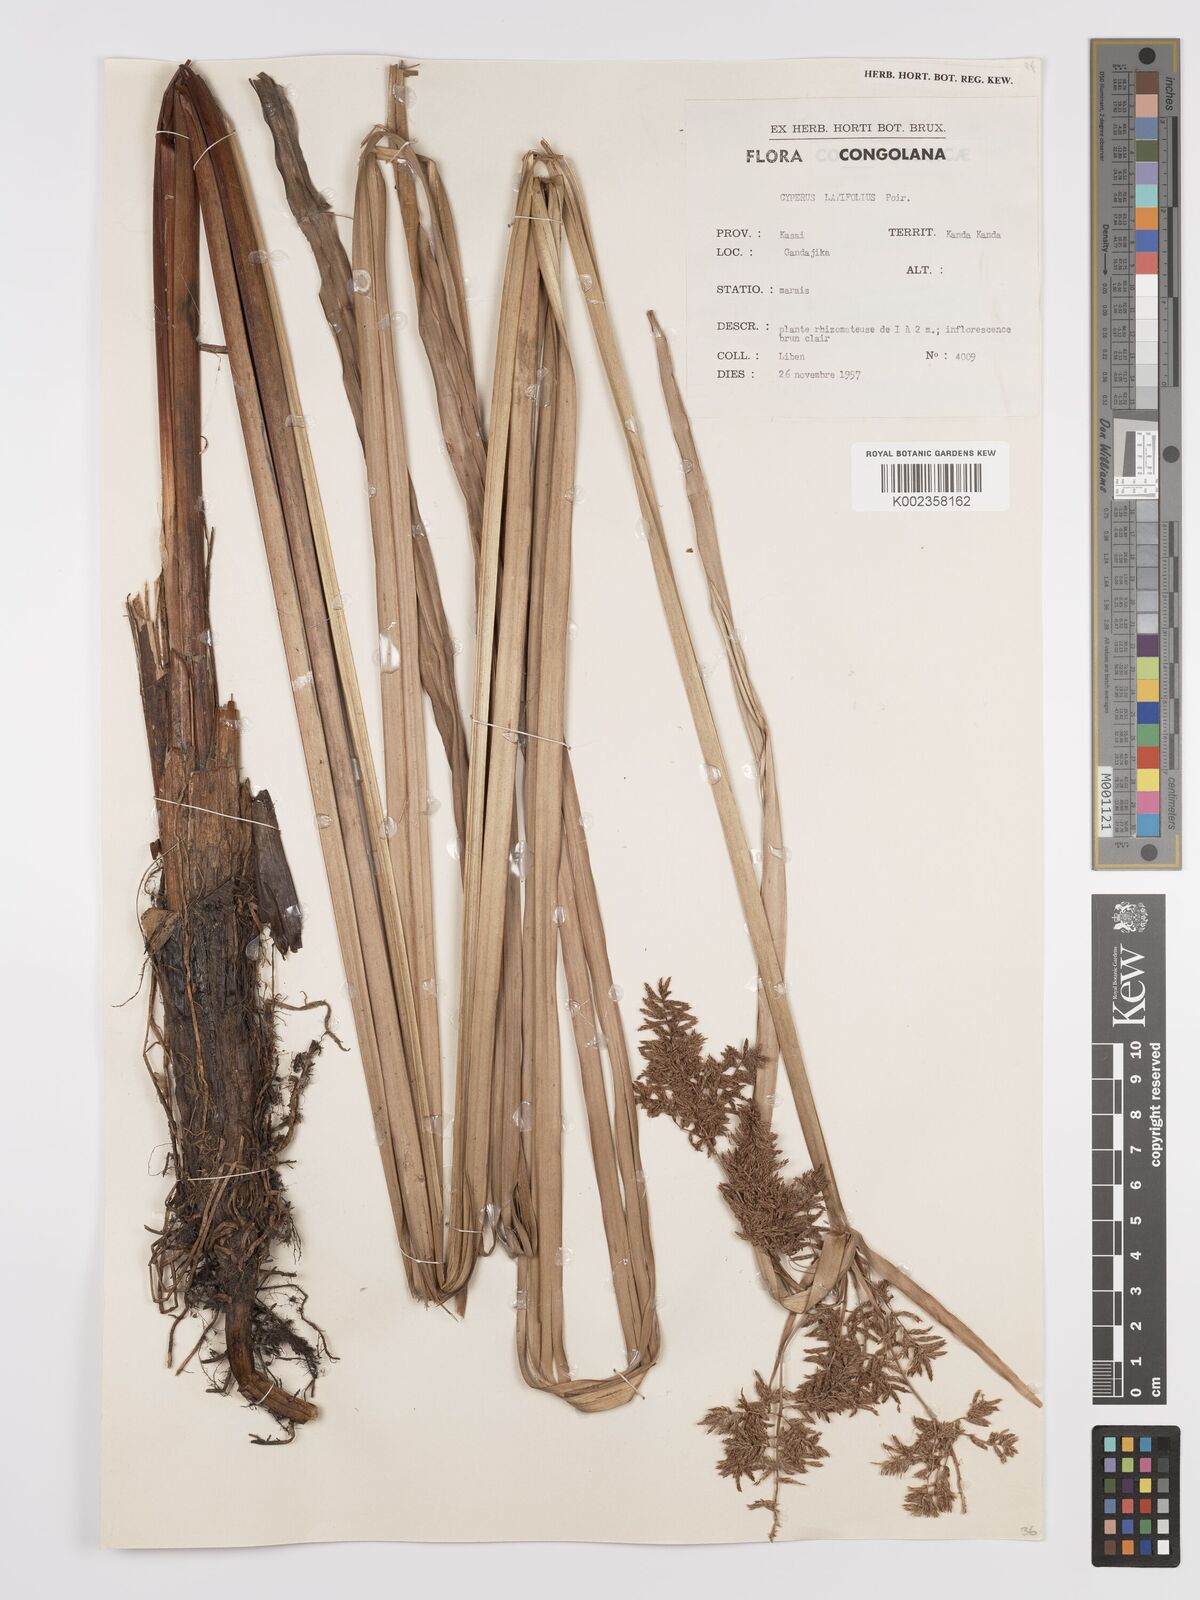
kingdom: Plantae
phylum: Tracheophyta
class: Liliopsida
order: Poales
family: Cyperaceae
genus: Cyperus
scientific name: Cyperus latifolius
